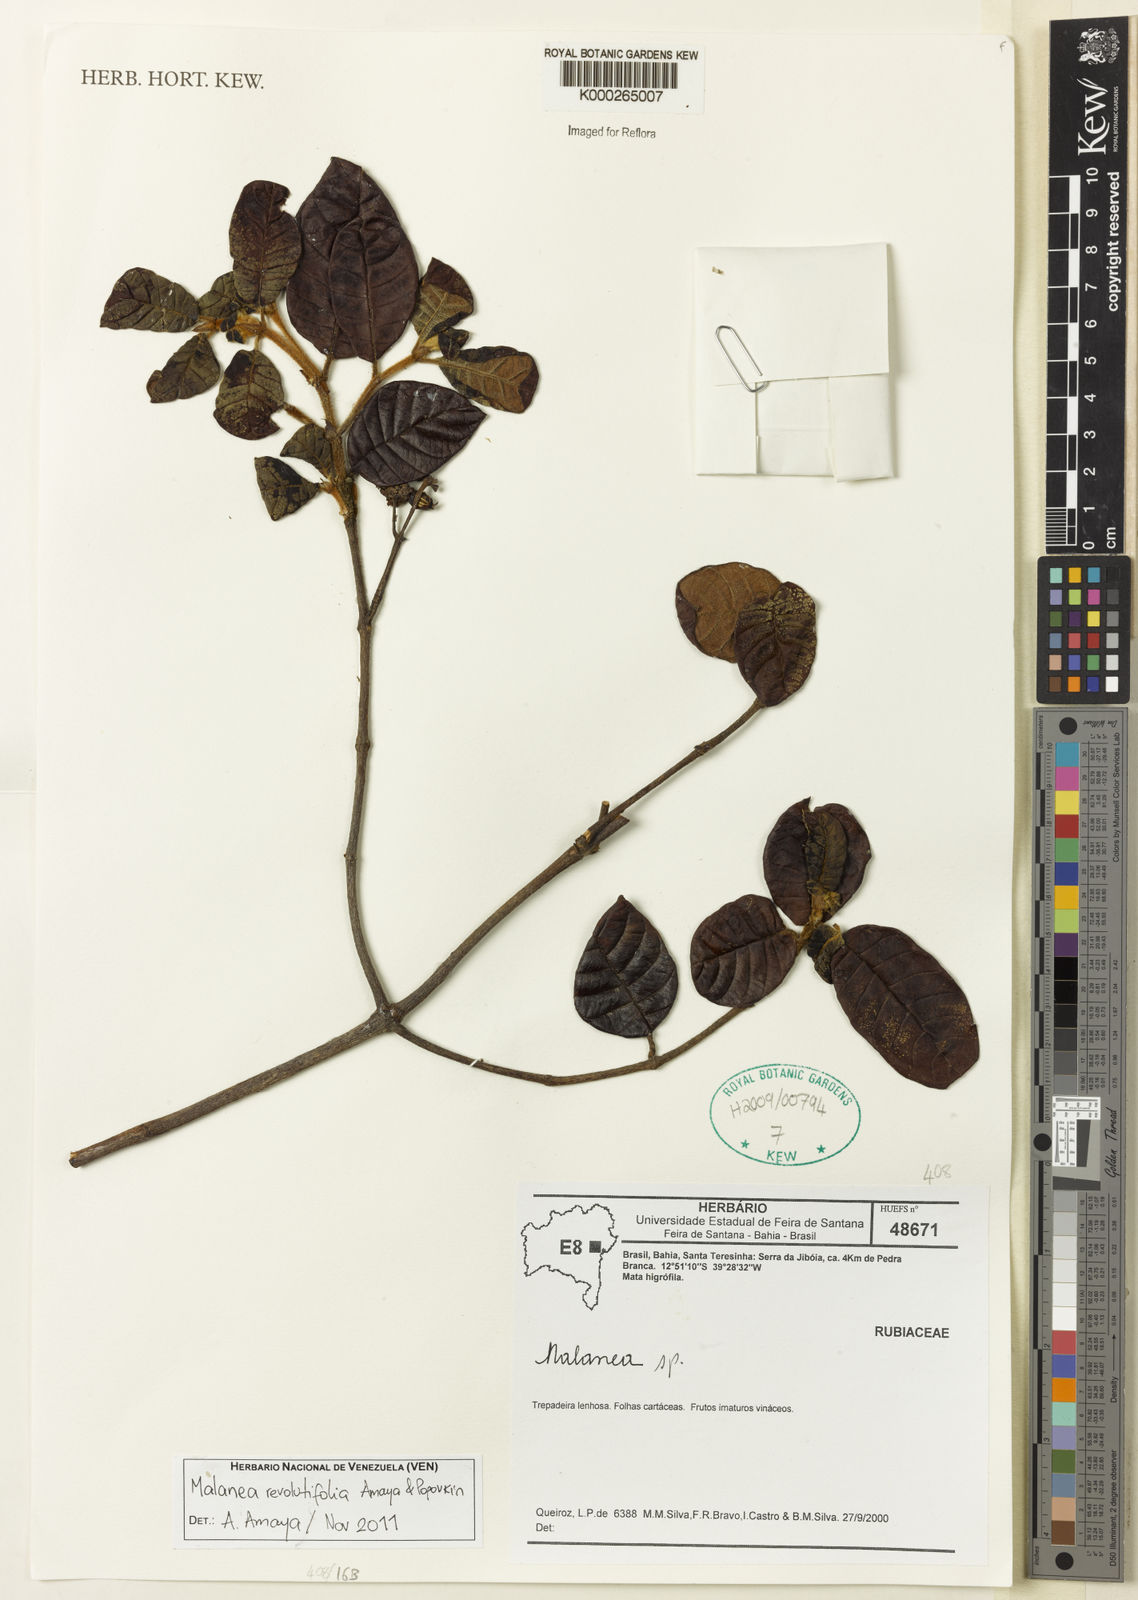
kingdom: Plantae
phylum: Tracheophyta
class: Magnoliopsida
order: Gentianales
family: Rubiaceae
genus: Malanea
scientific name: Malanea
